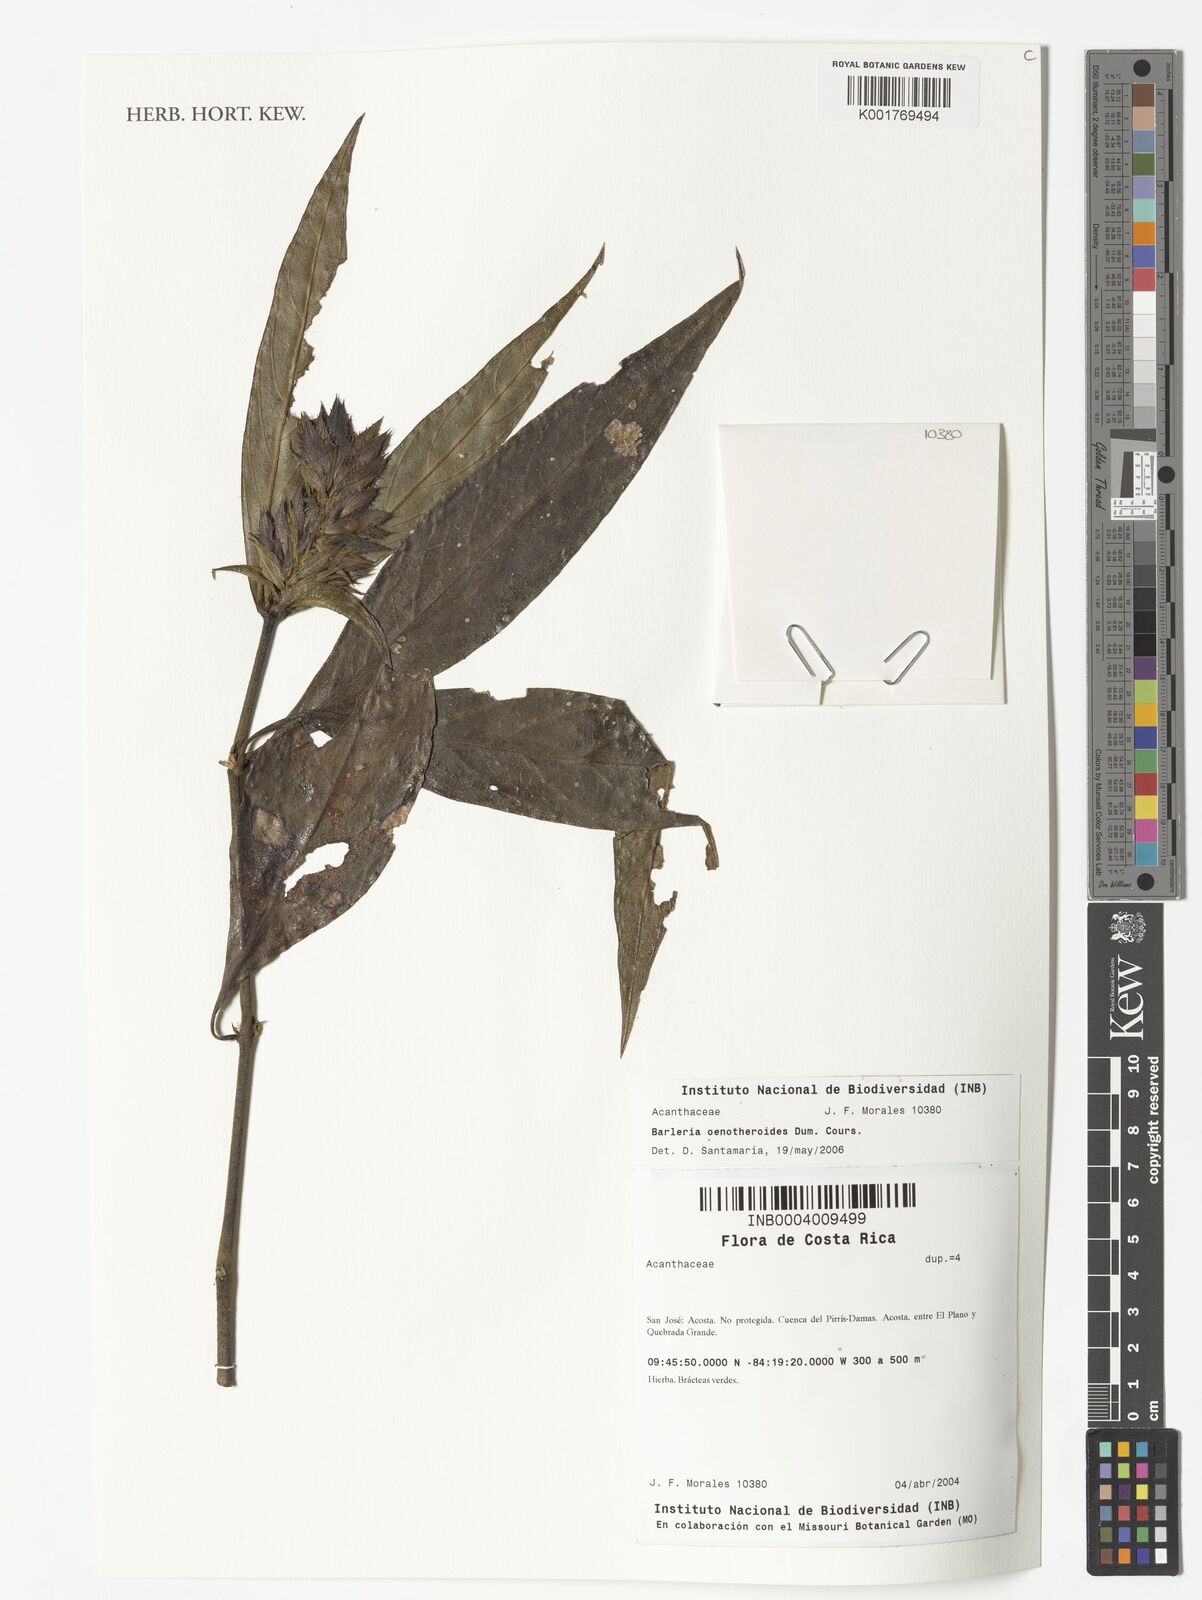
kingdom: Plantae
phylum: Tracheophyta
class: Magnoliopsida
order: Lamiales
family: Acanthaceae
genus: Barleria
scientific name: Barleria oenotheroides
